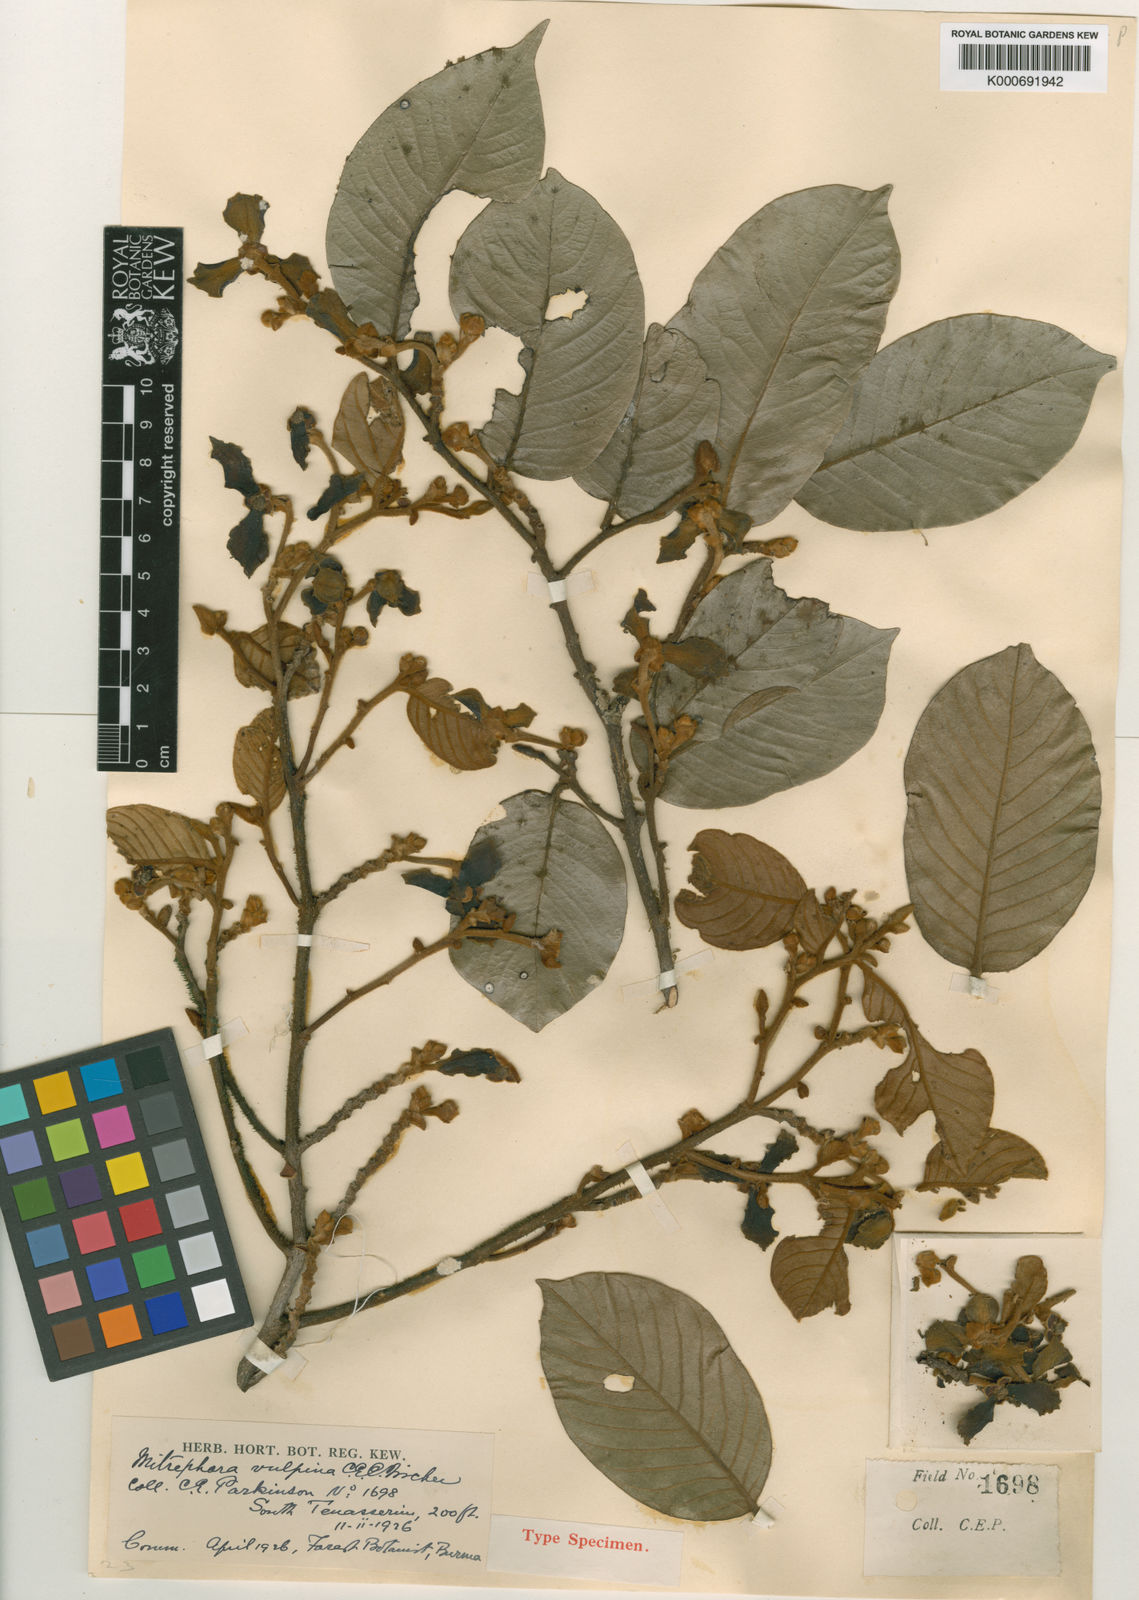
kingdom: Plantae
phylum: Tracheophyta
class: Magnoliopsida
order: Magnoliales
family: Annonaceae
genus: Mitrephora
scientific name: Mitrephora vulpina
